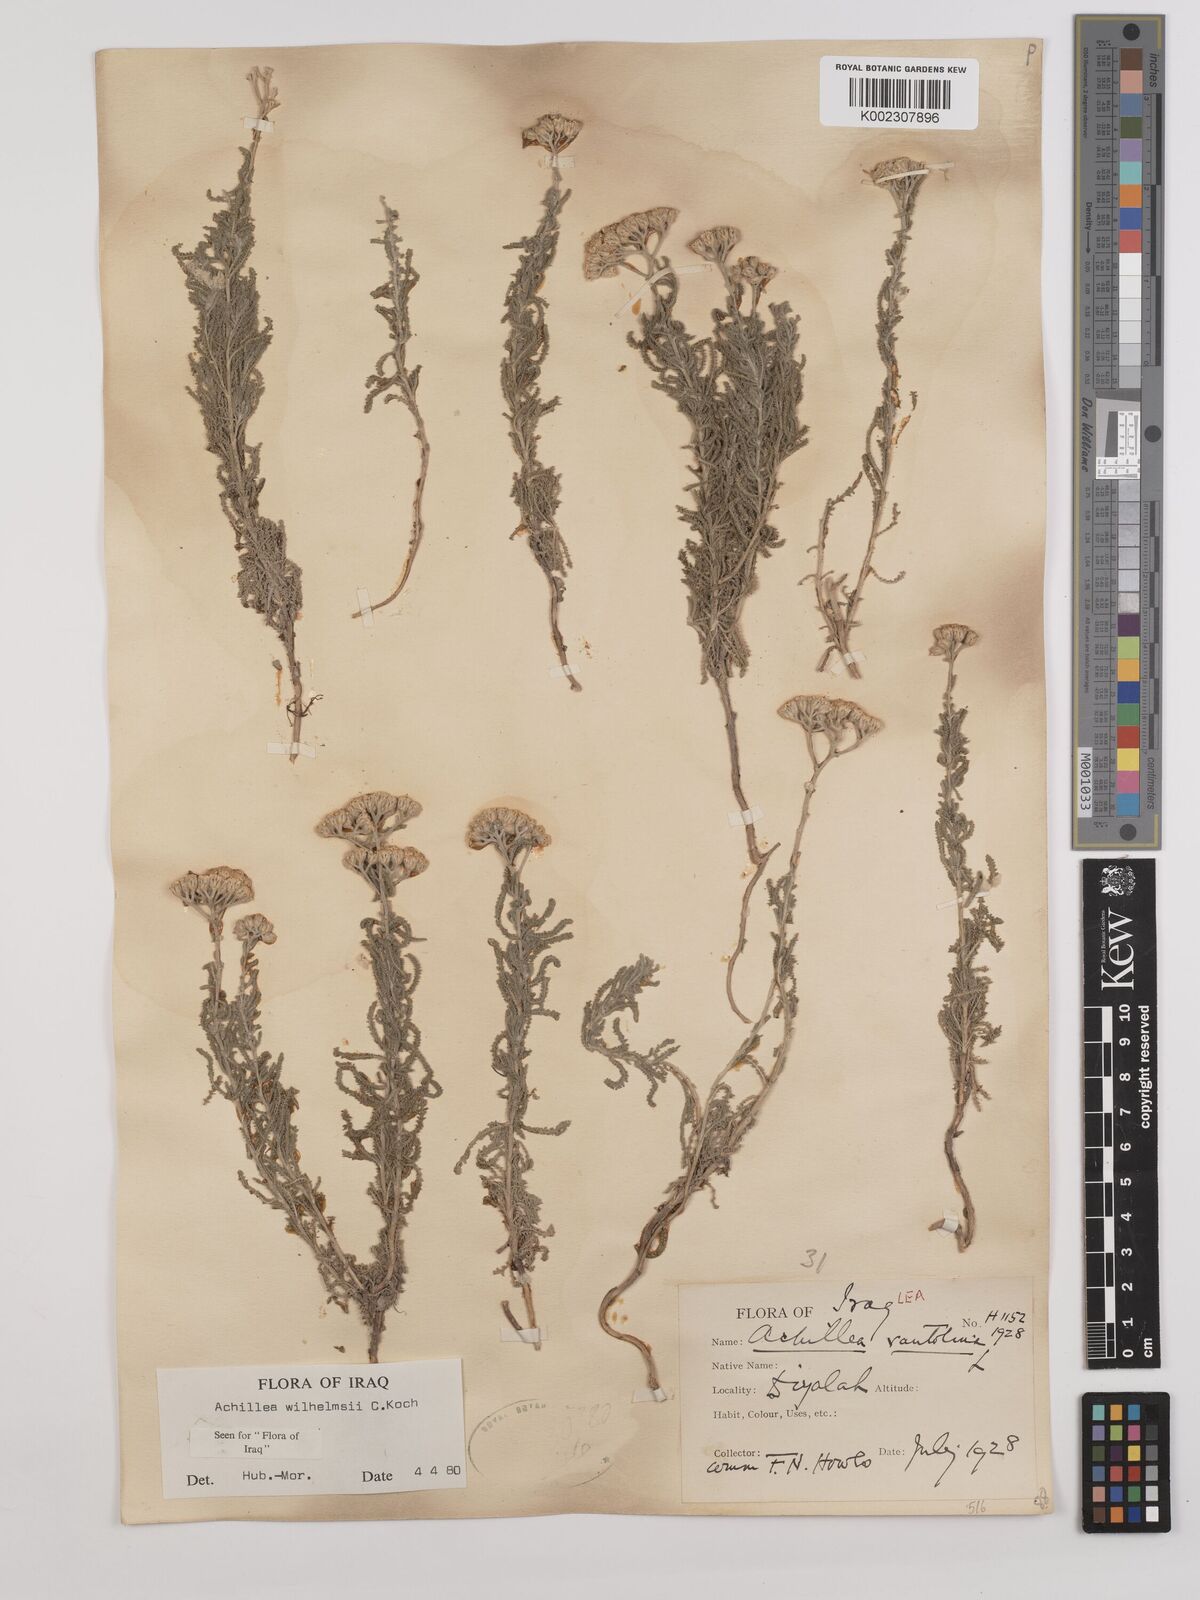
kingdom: Plantae
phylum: Tracheophyta
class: Magnoliopsida
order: Asterales
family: Asteraceae
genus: Achillea
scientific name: Achillea wilhelmsii
